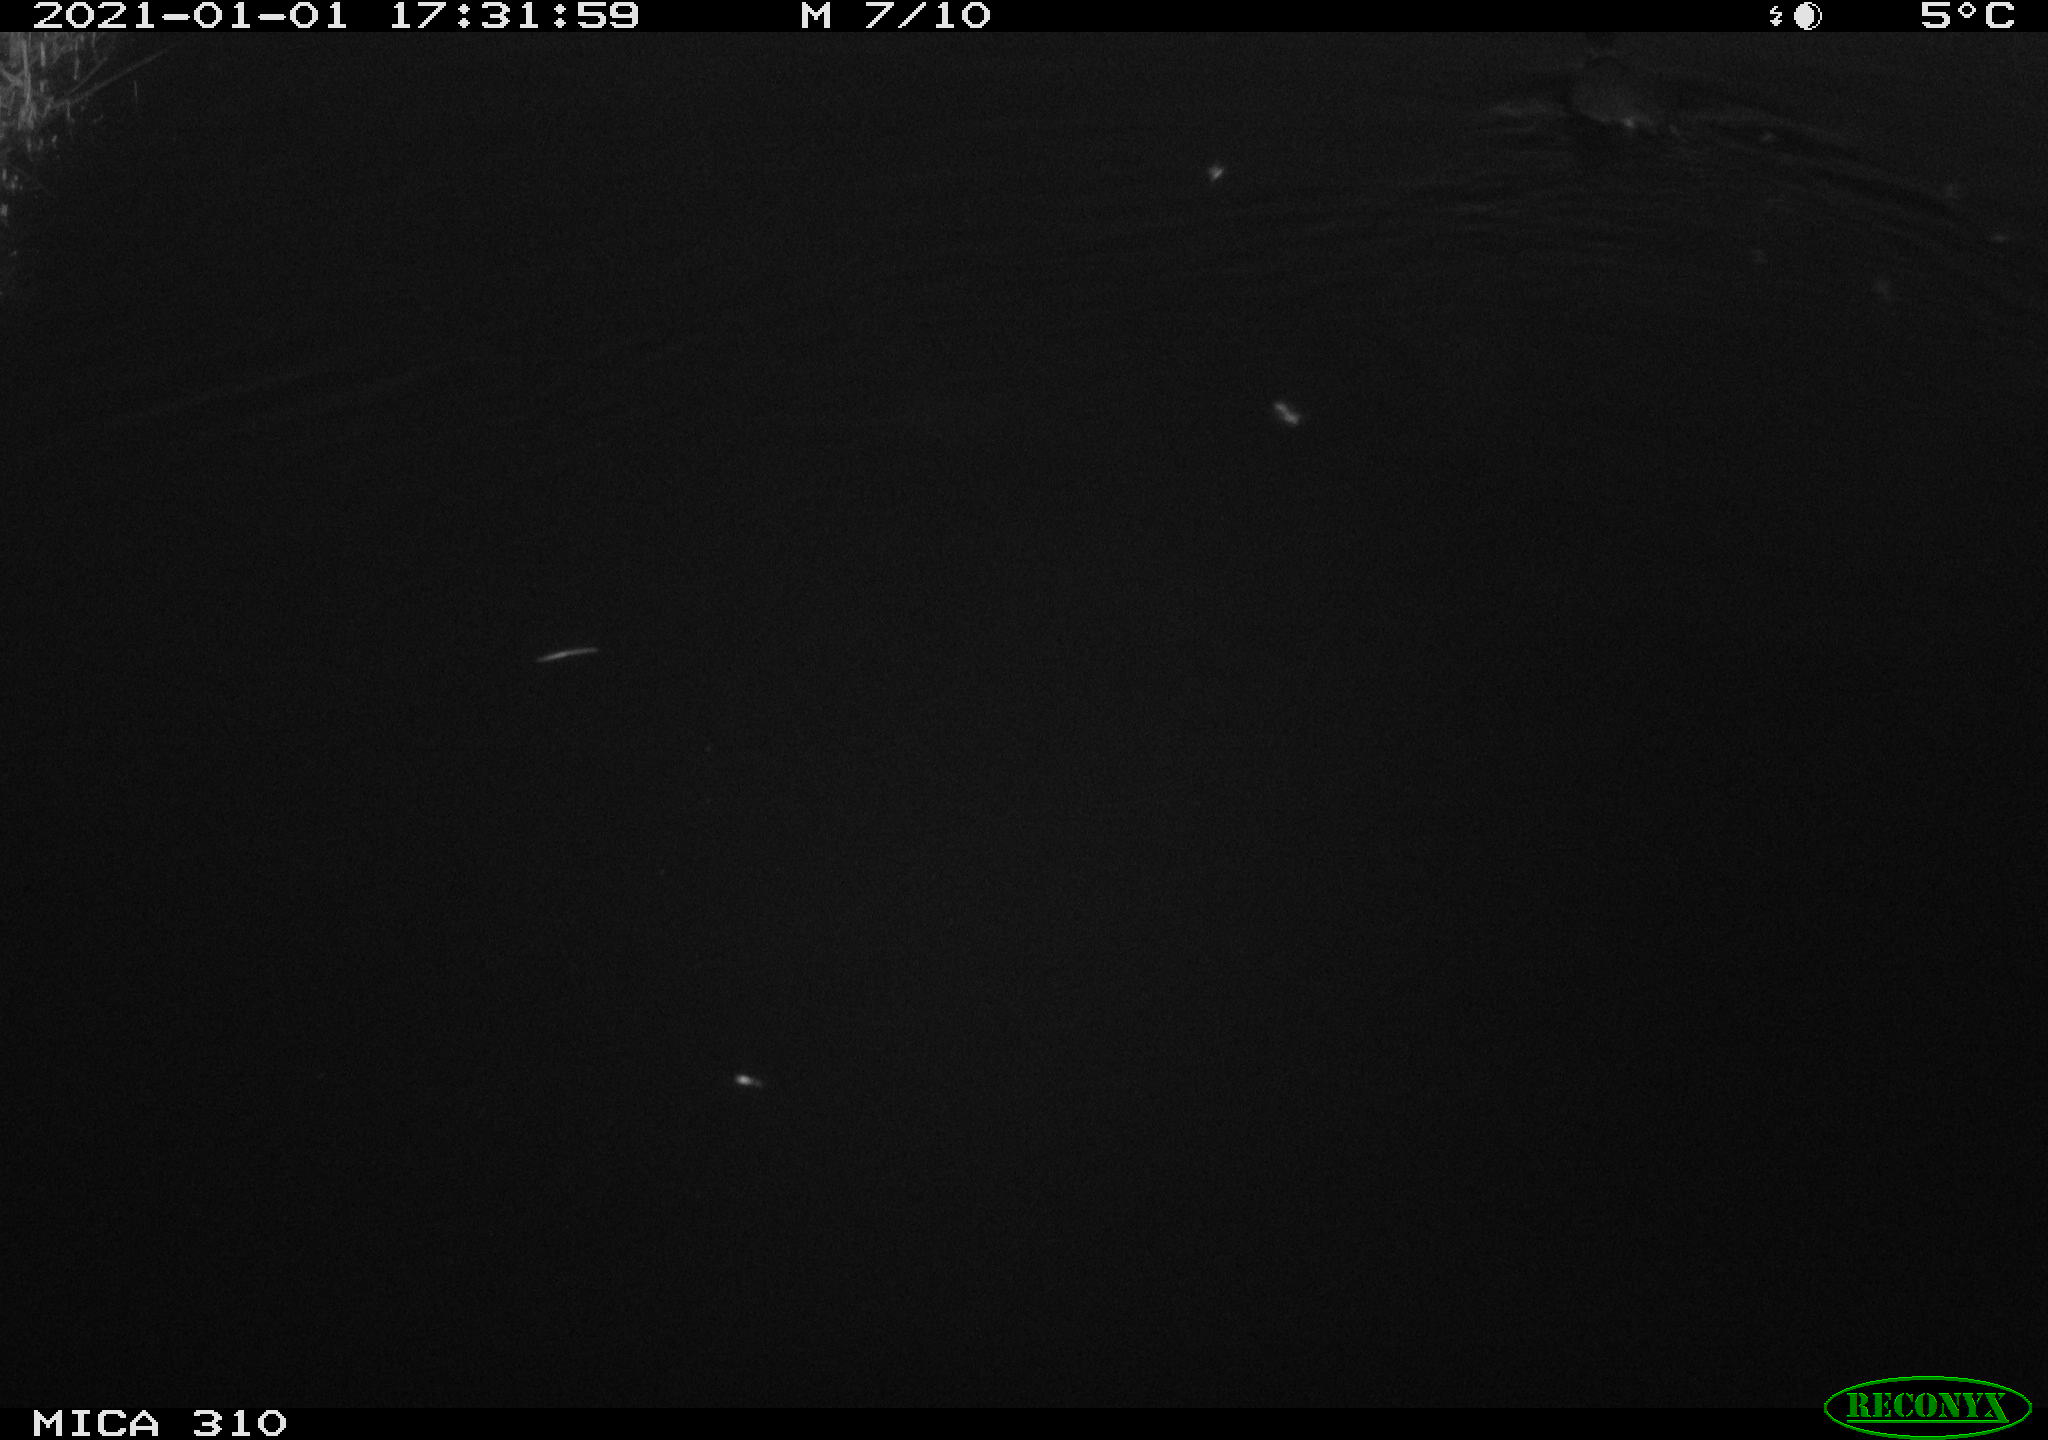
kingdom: Animalia
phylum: Chordata
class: Aves
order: Gruiformes
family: Rallidae
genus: Fulica
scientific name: Fulica atra
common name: Eurasian coot
